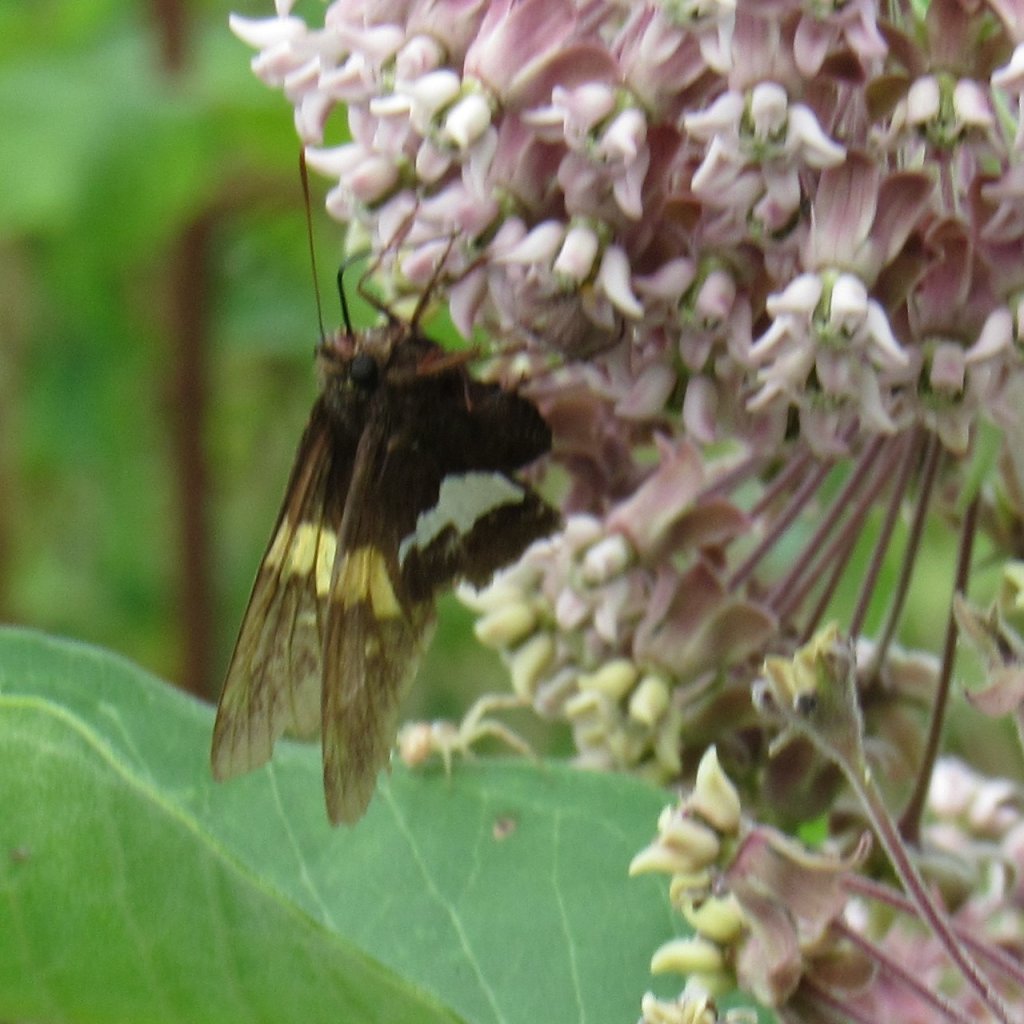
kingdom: Animalia
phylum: Arthropoda
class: Insecta
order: Lepidoptera
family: Hesperiidae
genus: Epargyreus
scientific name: Epargyreus clarus
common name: Silver-spotted Skipper
